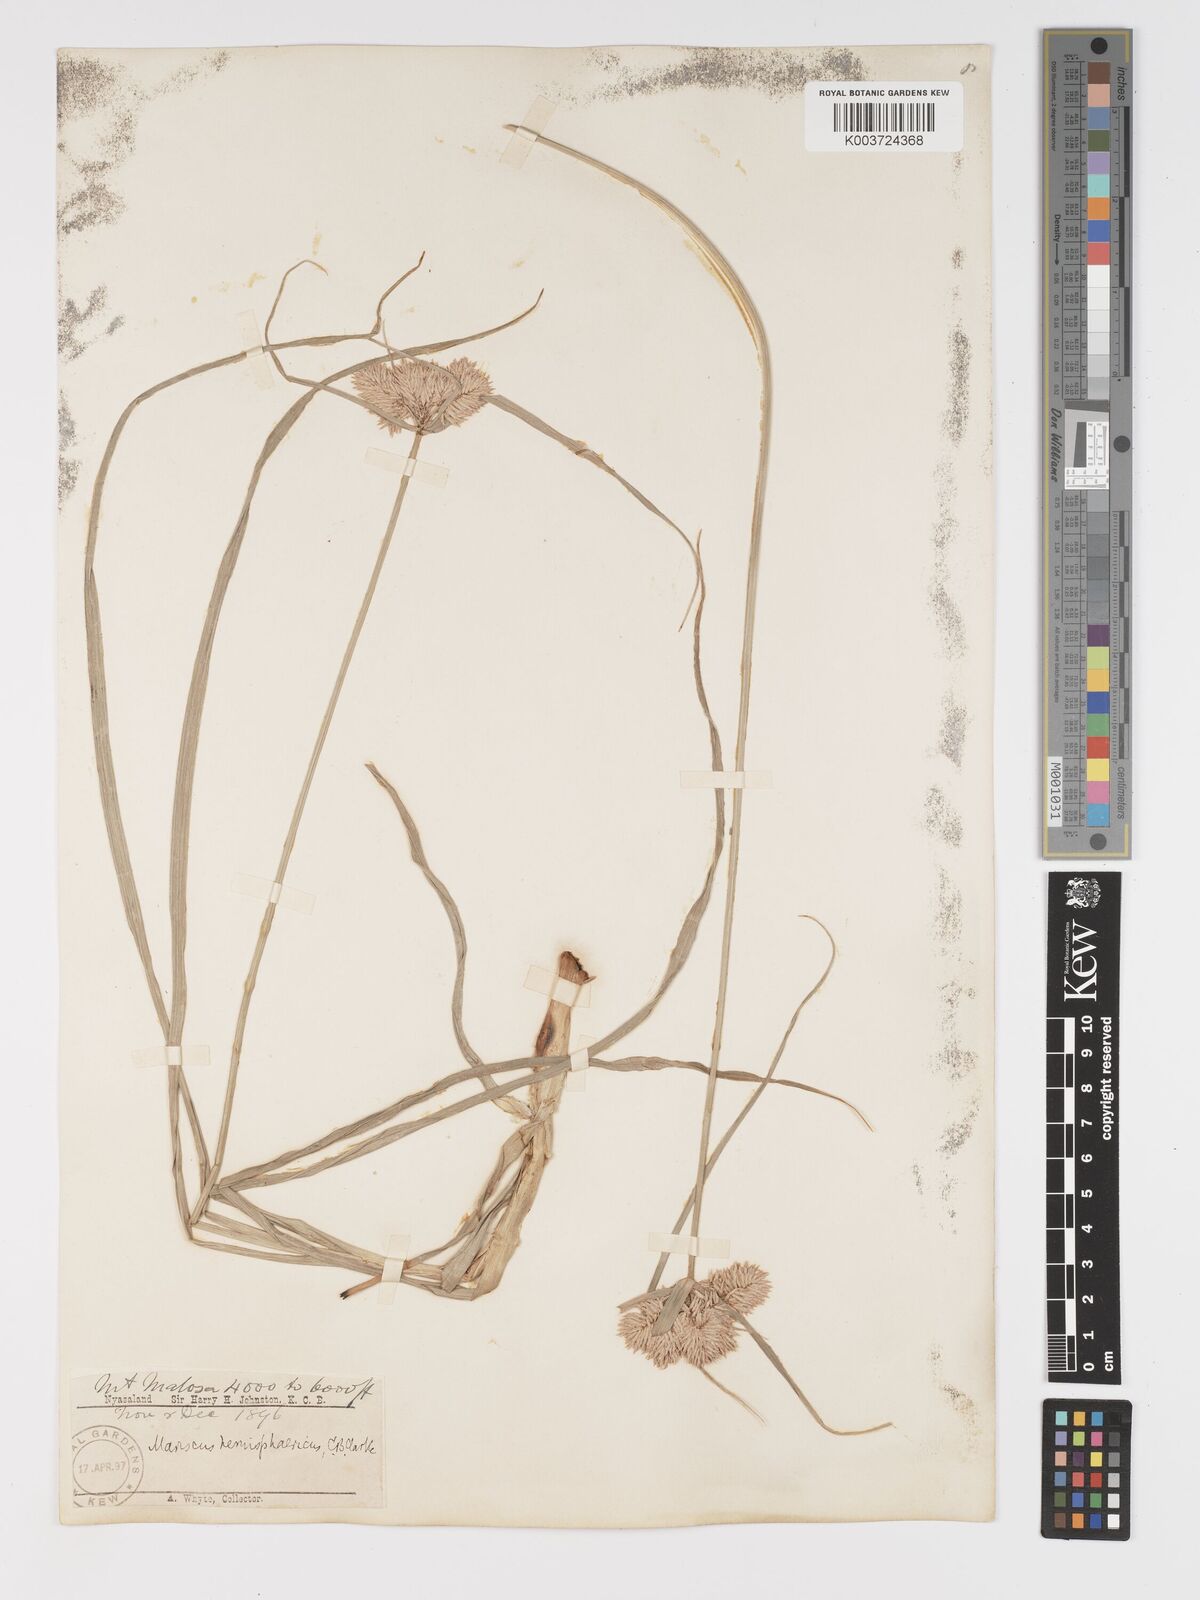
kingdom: Plantae
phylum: Tracheophyta
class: Liliopsida
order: Poales
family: Cyperaceae
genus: Cyperus
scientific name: Cyperus hemisphaericus
